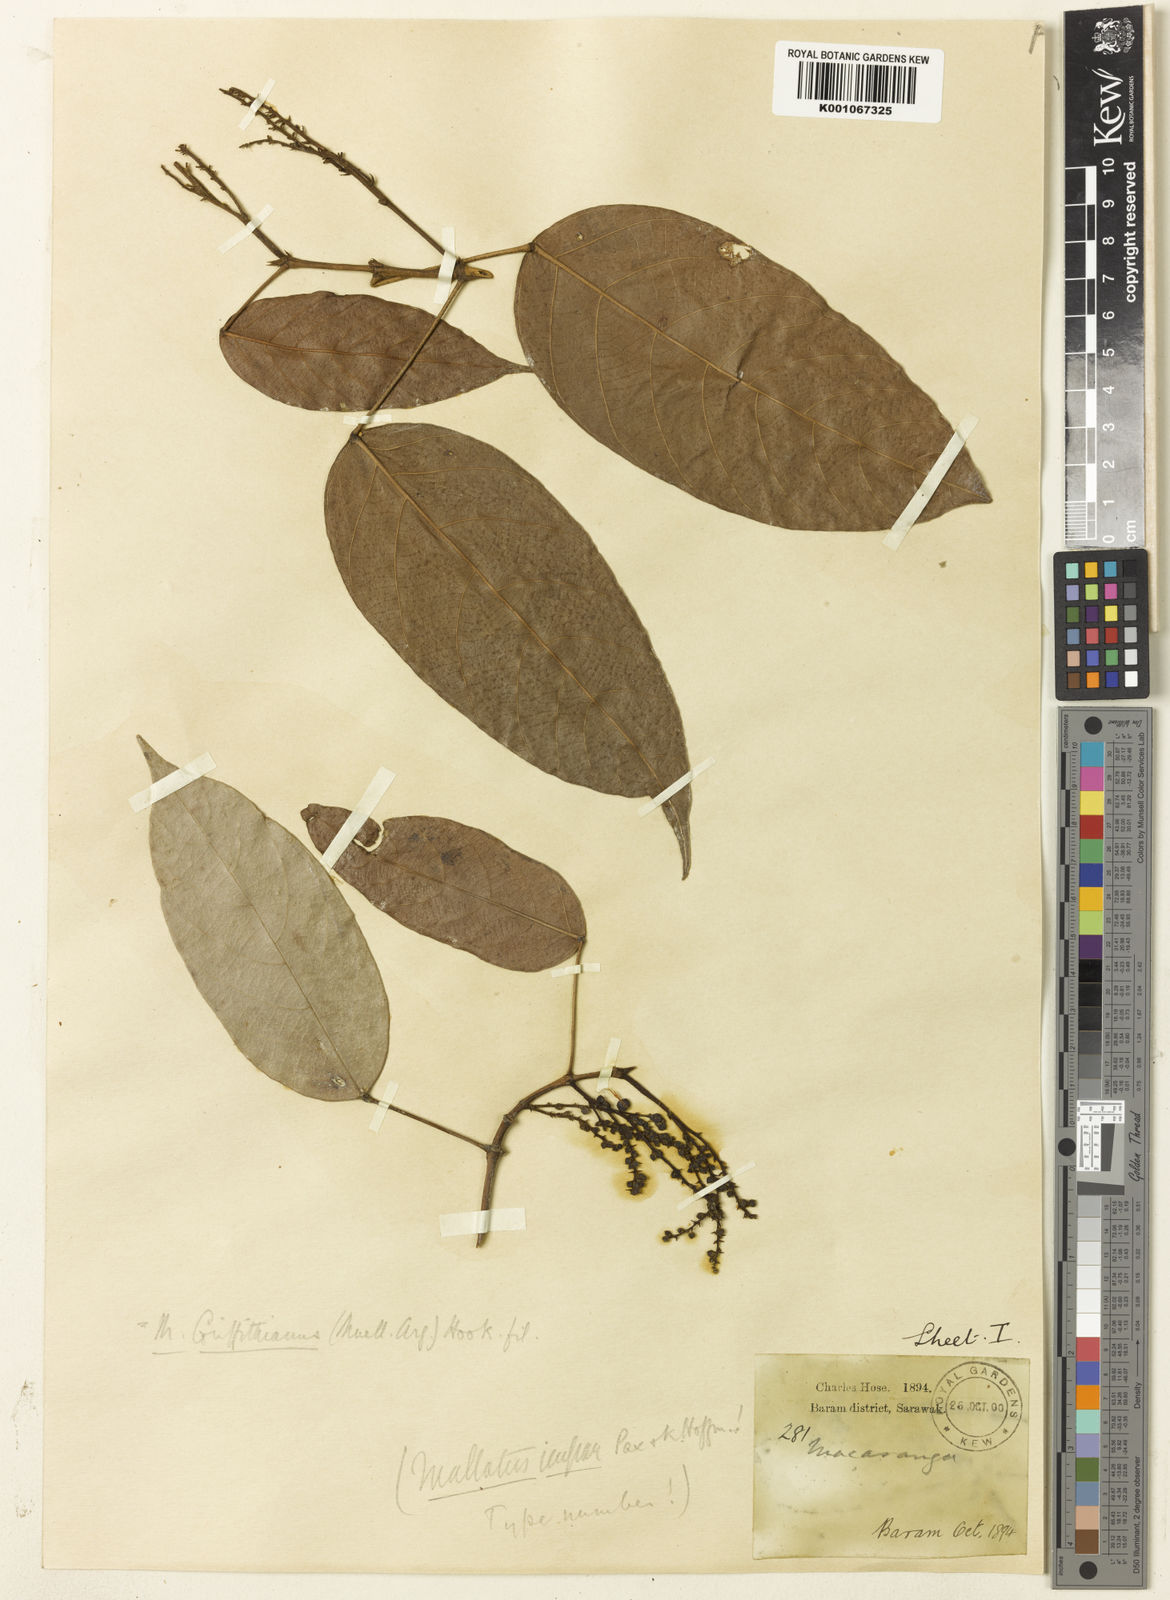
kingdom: Plantae
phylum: Tracheophyta
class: Magnoliopsida
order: Malpighiales
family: Euphorbiaceae
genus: Hancea
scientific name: Hancea griffithiana
